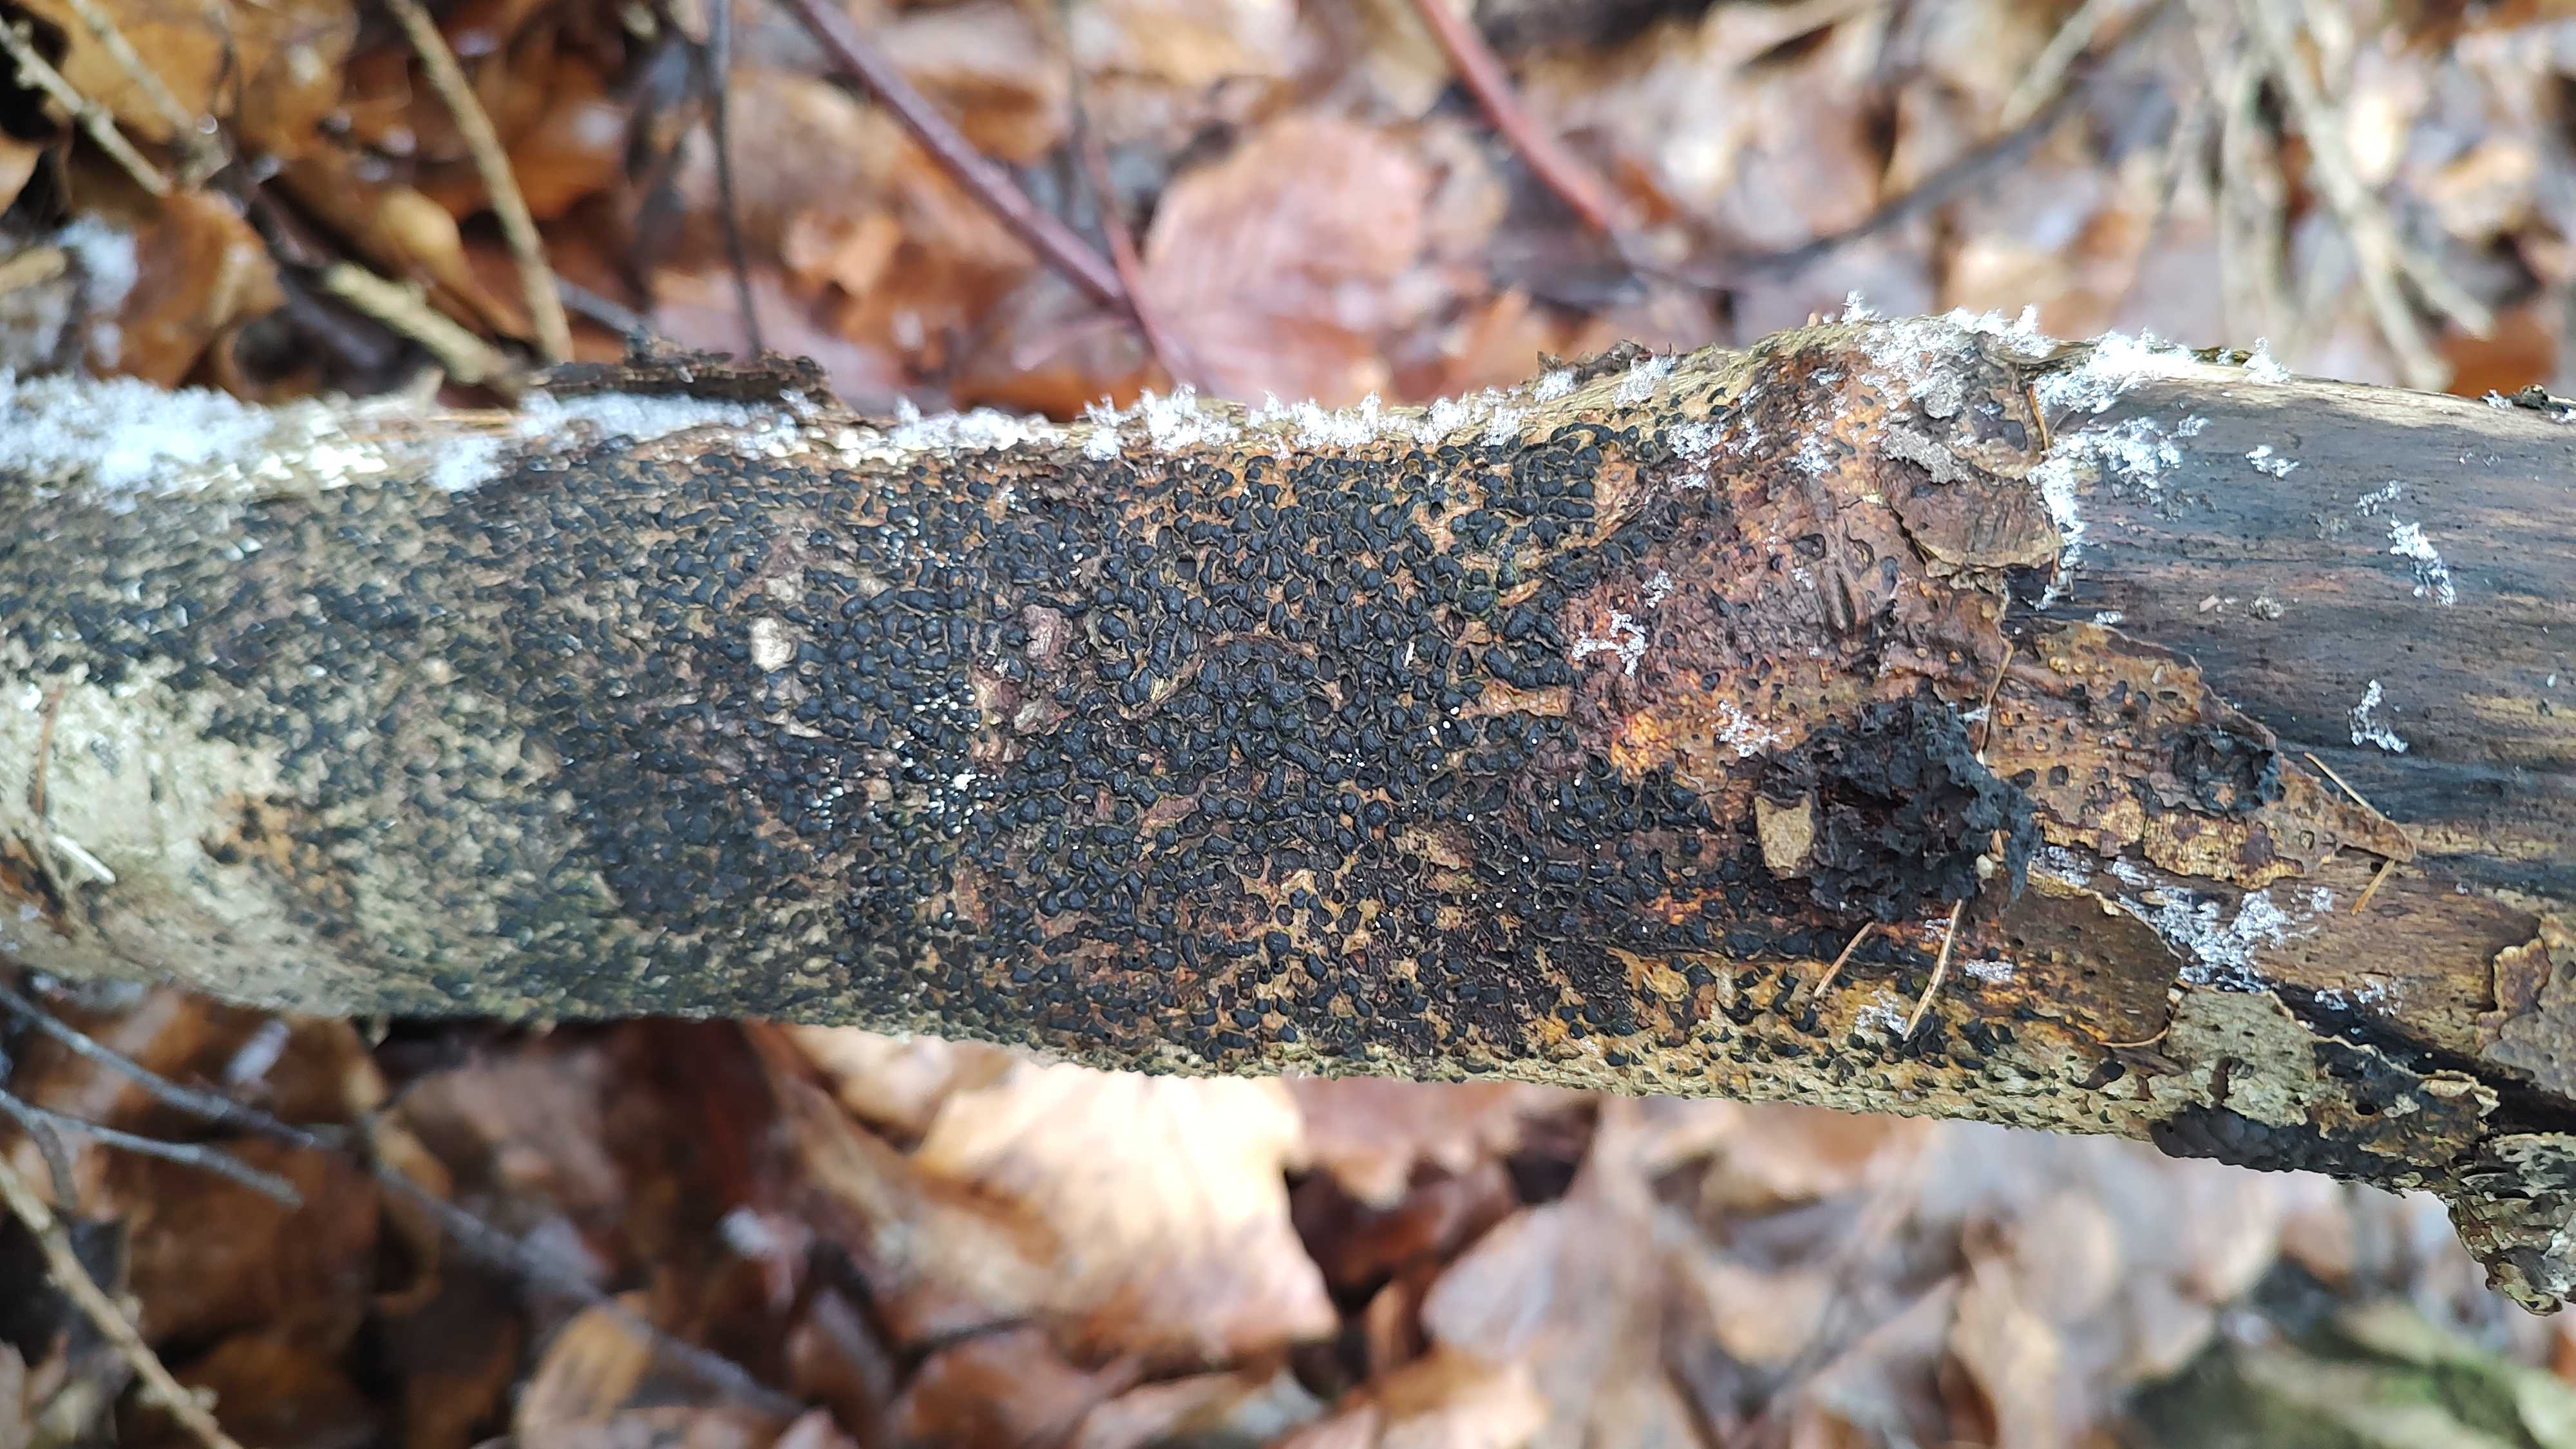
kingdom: Fungi
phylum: Ascomycota
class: Sordariomycetes
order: Xylariales
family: Melogrammataceae
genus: Melogramma
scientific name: Melogramma spiniferum
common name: bøgefod-kulhals
